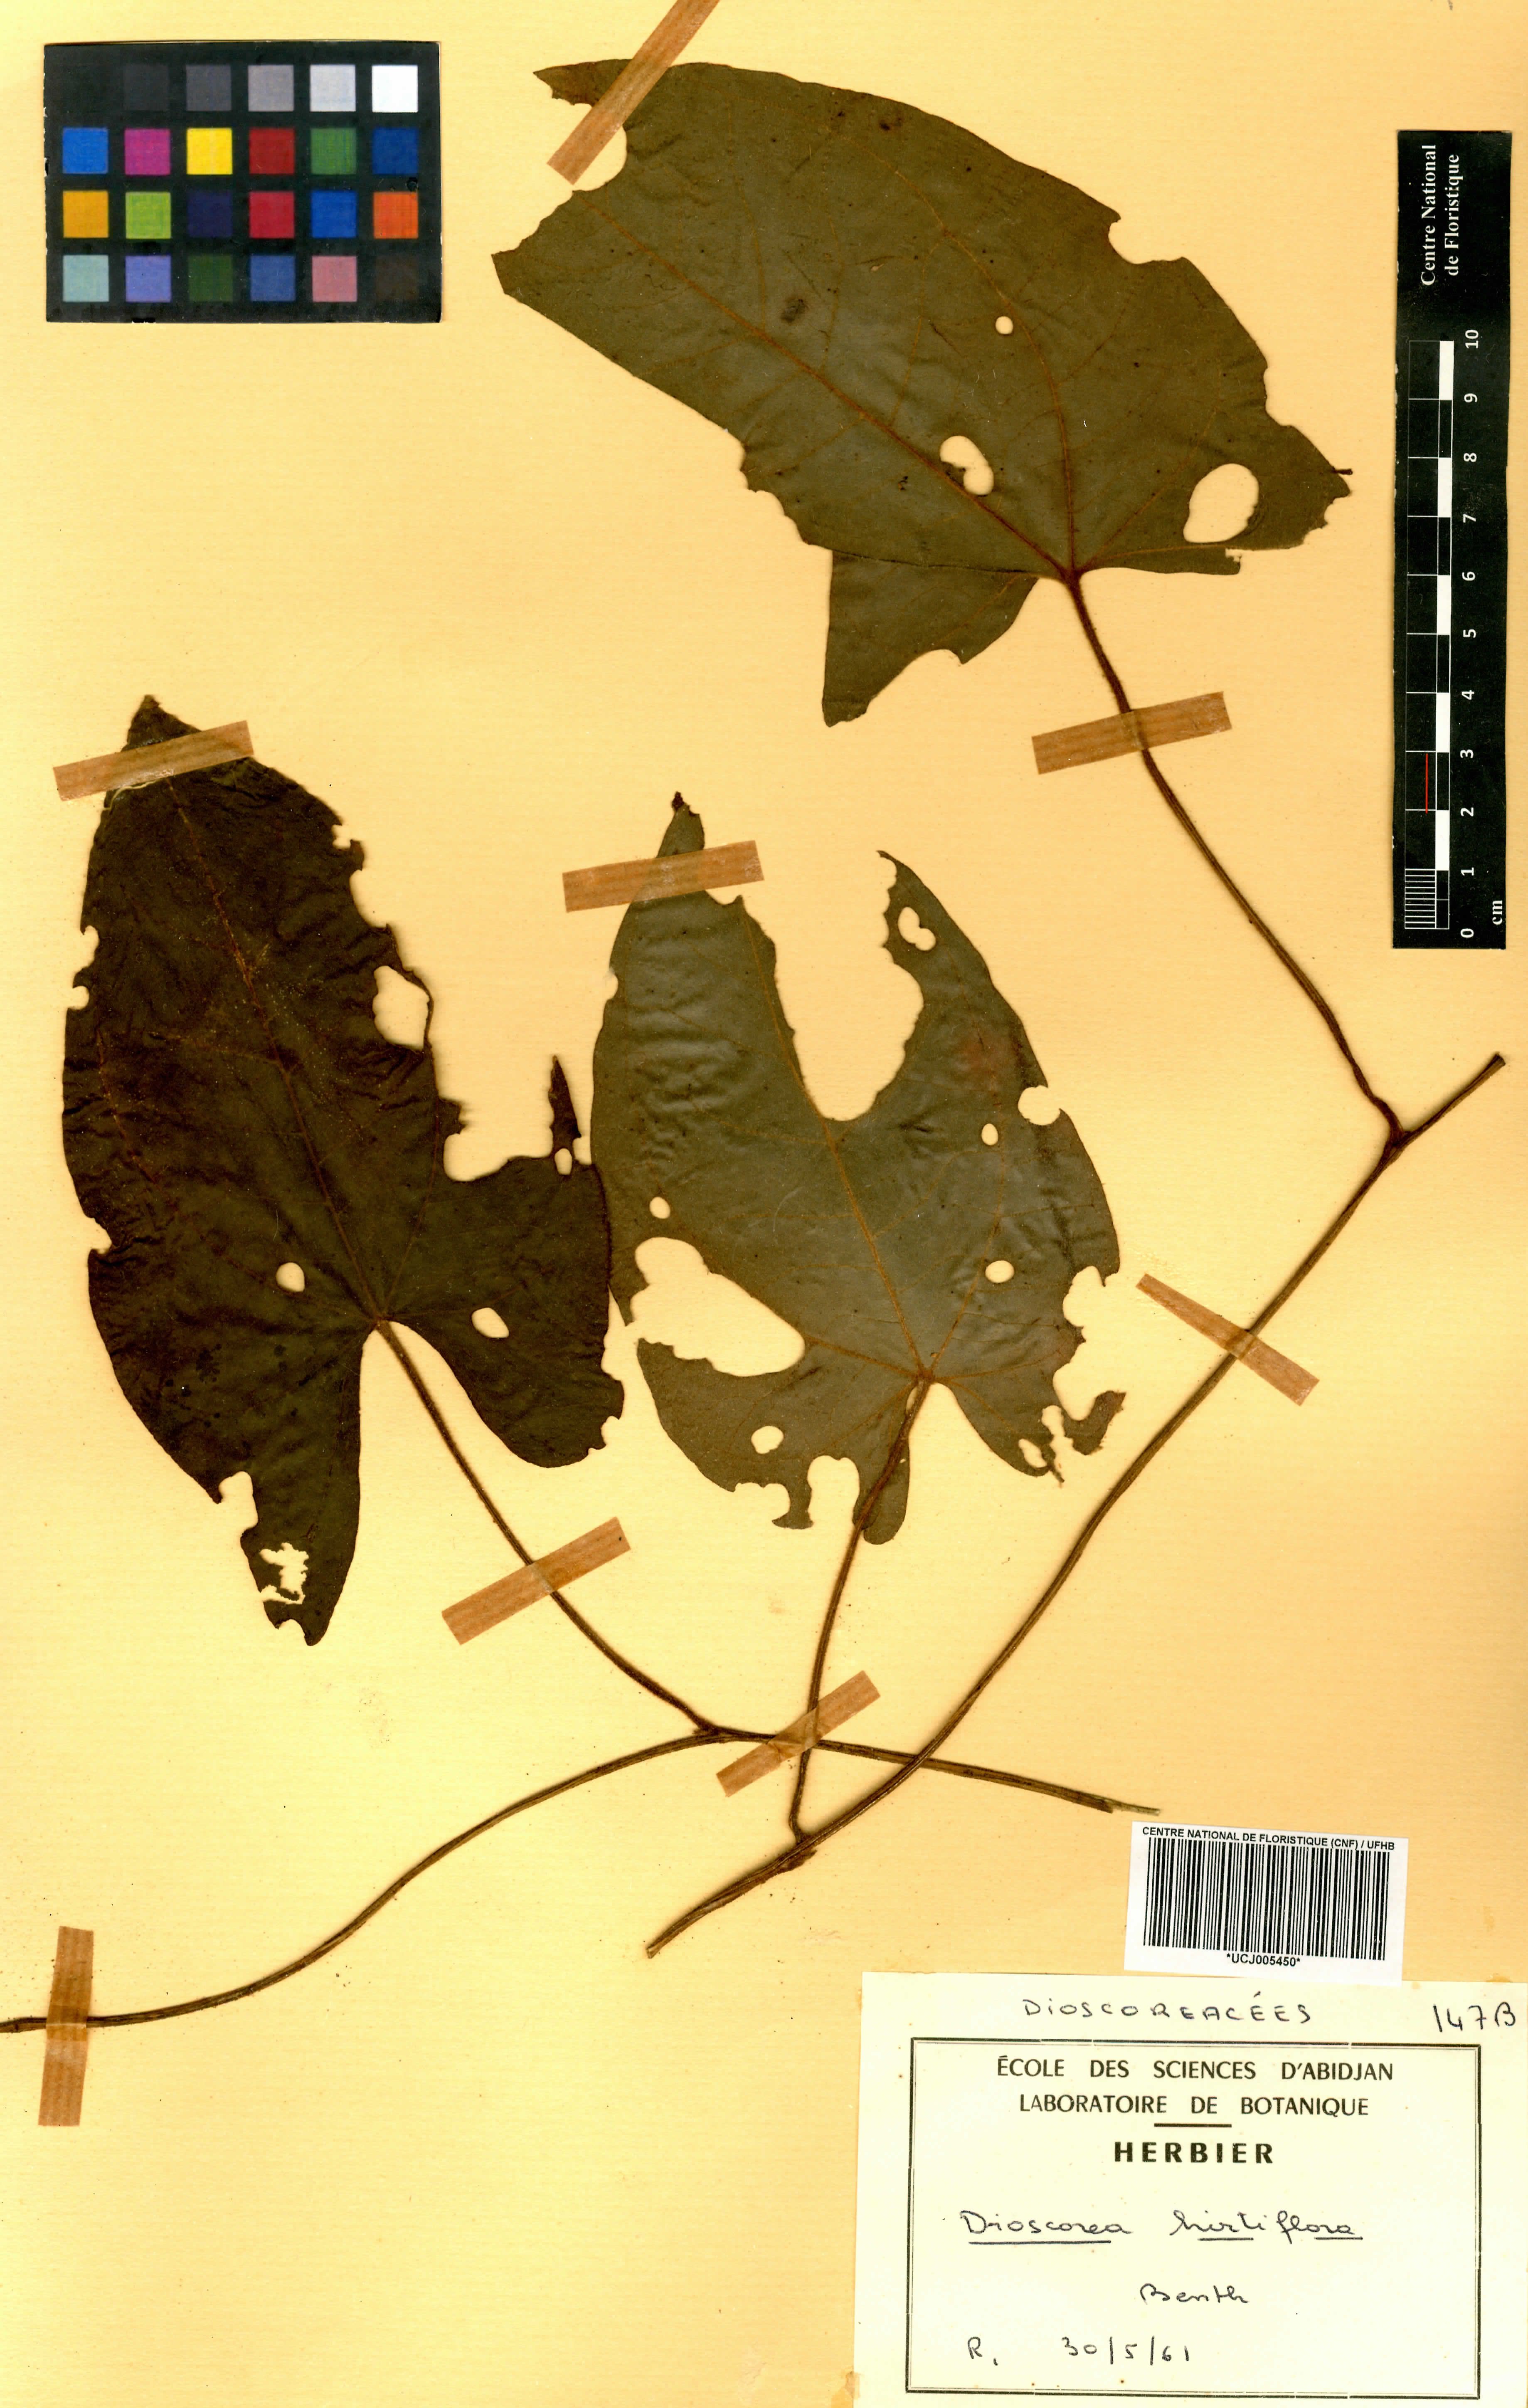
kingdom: Plantae
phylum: Tracheophyta
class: Liliopsida
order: Dioscoreales
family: Dioscoreaceae
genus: Dioscorea
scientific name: Dioscorea hirtiflora
